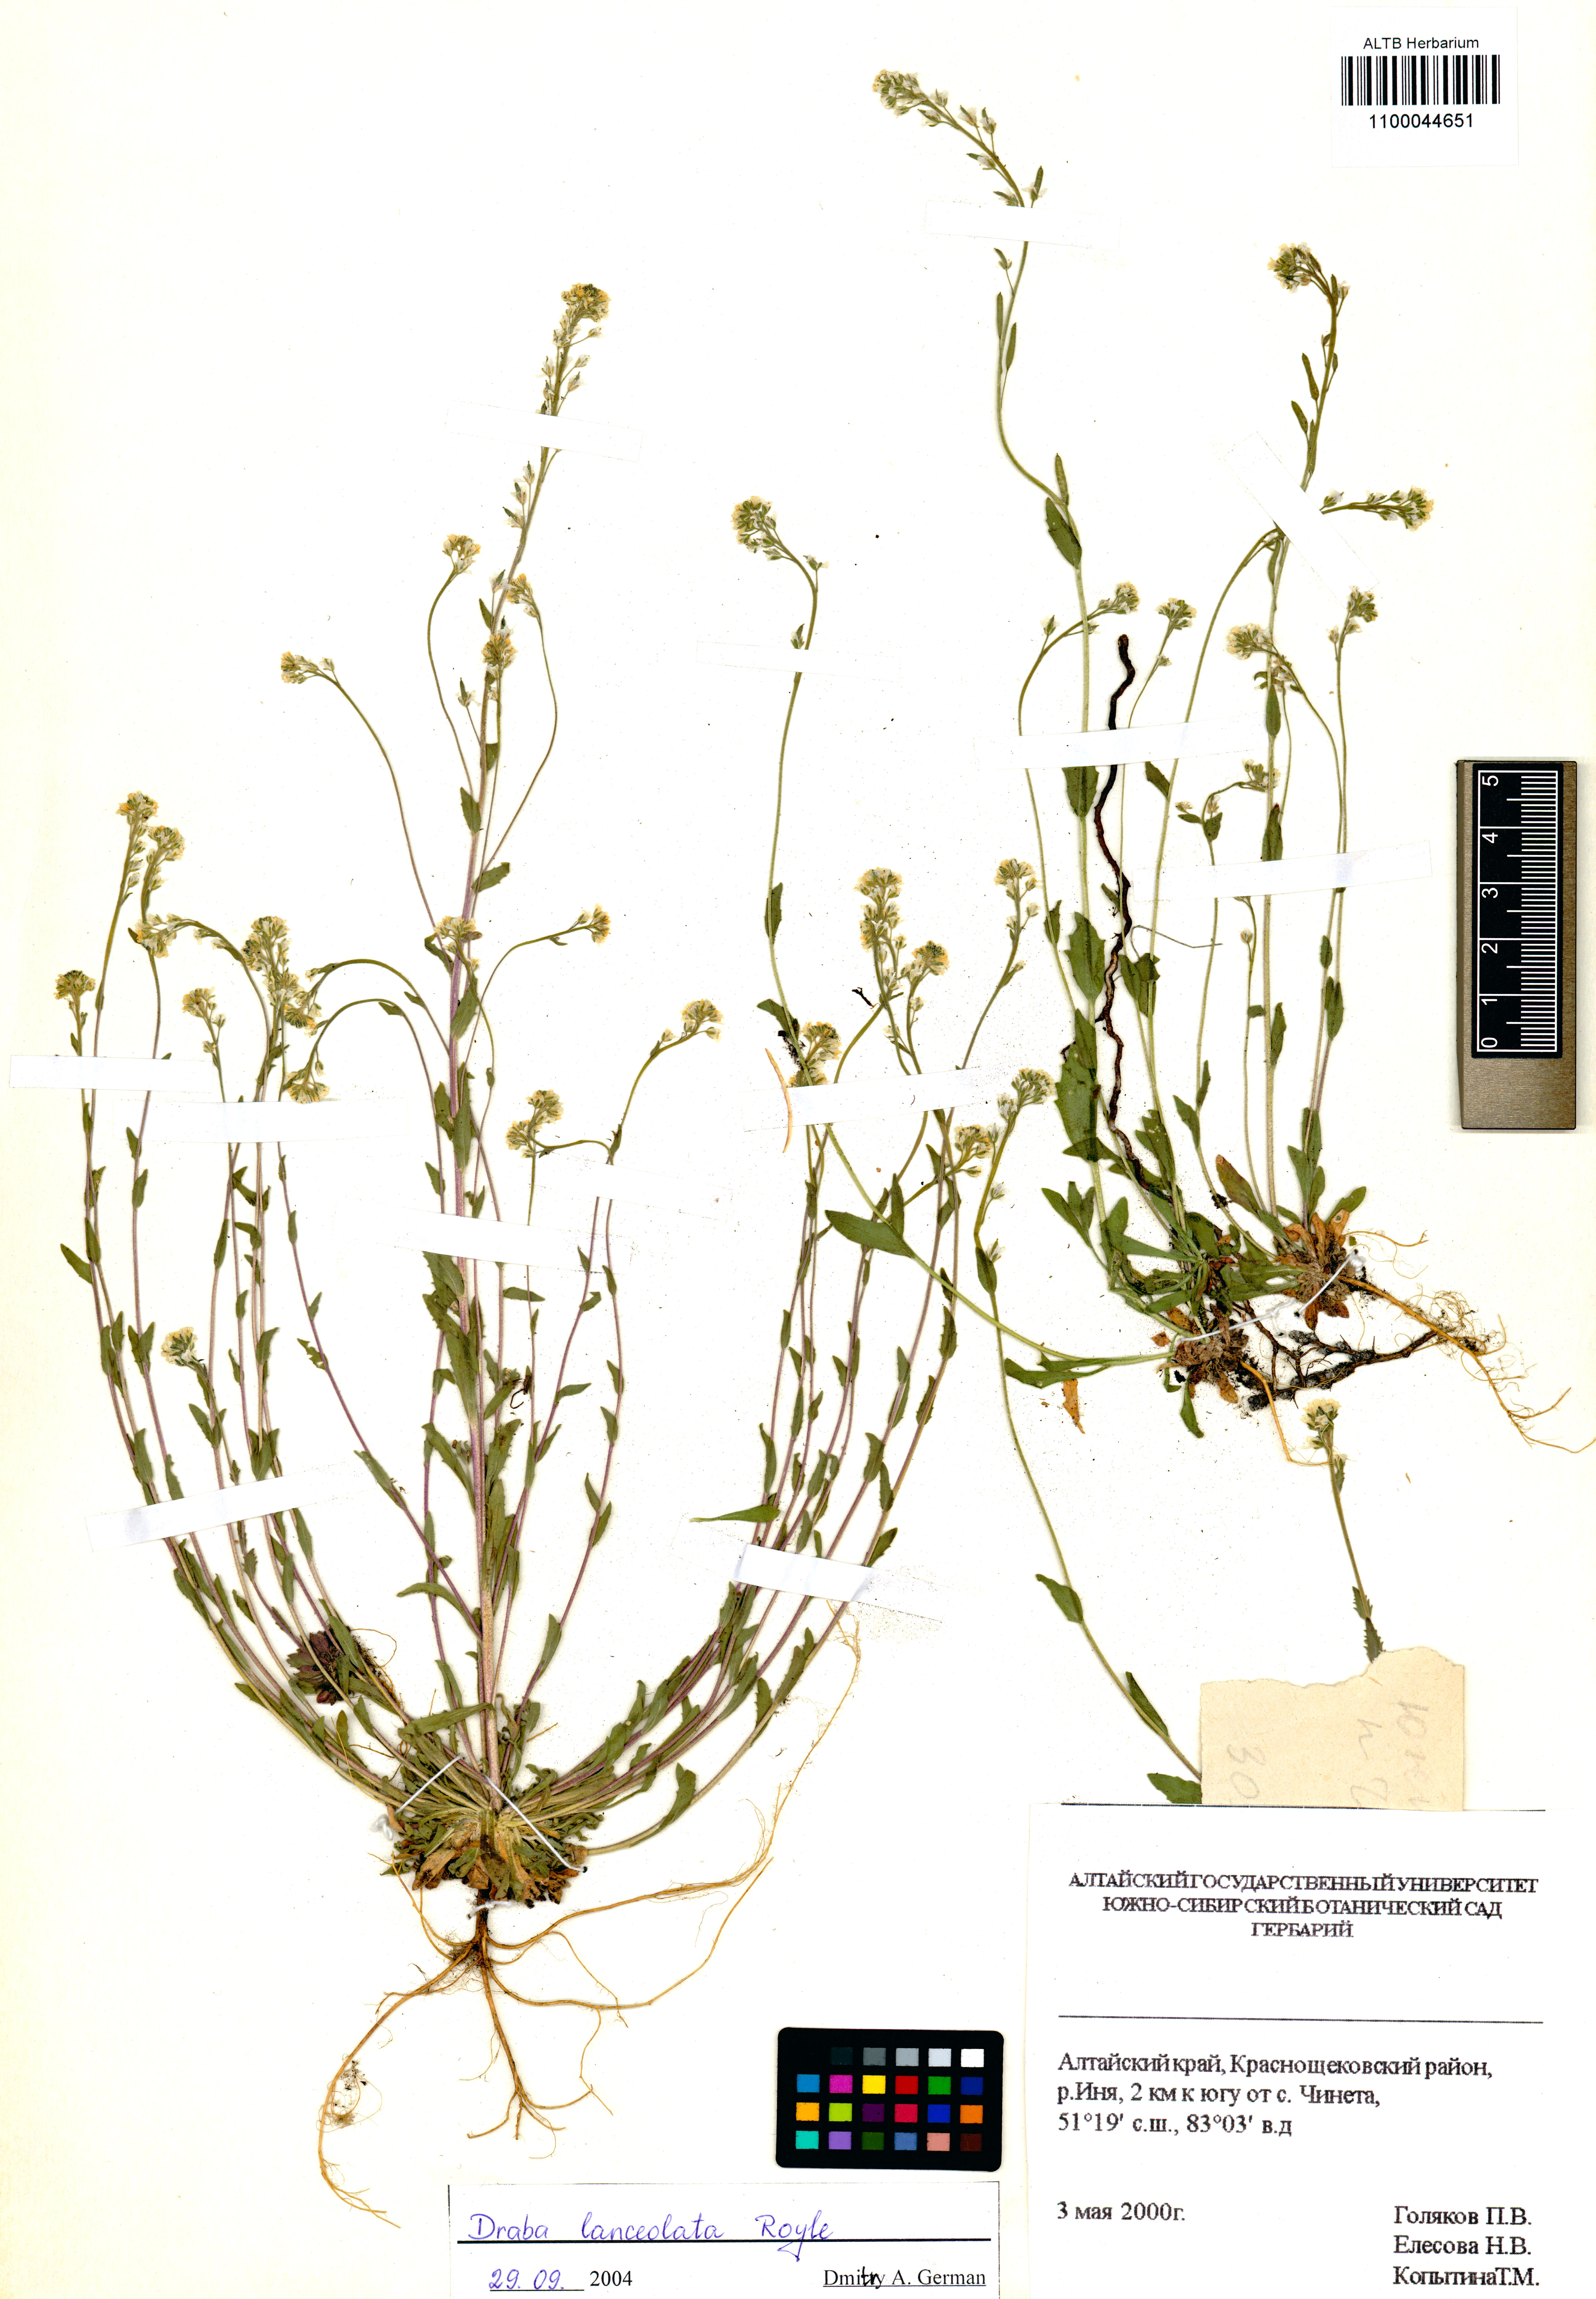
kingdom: Plantae
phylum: Tracheophyta
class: Magnoliopsida
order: Brassicales
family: Brassicaceae
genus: Draba
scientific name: Draba lanceolata
